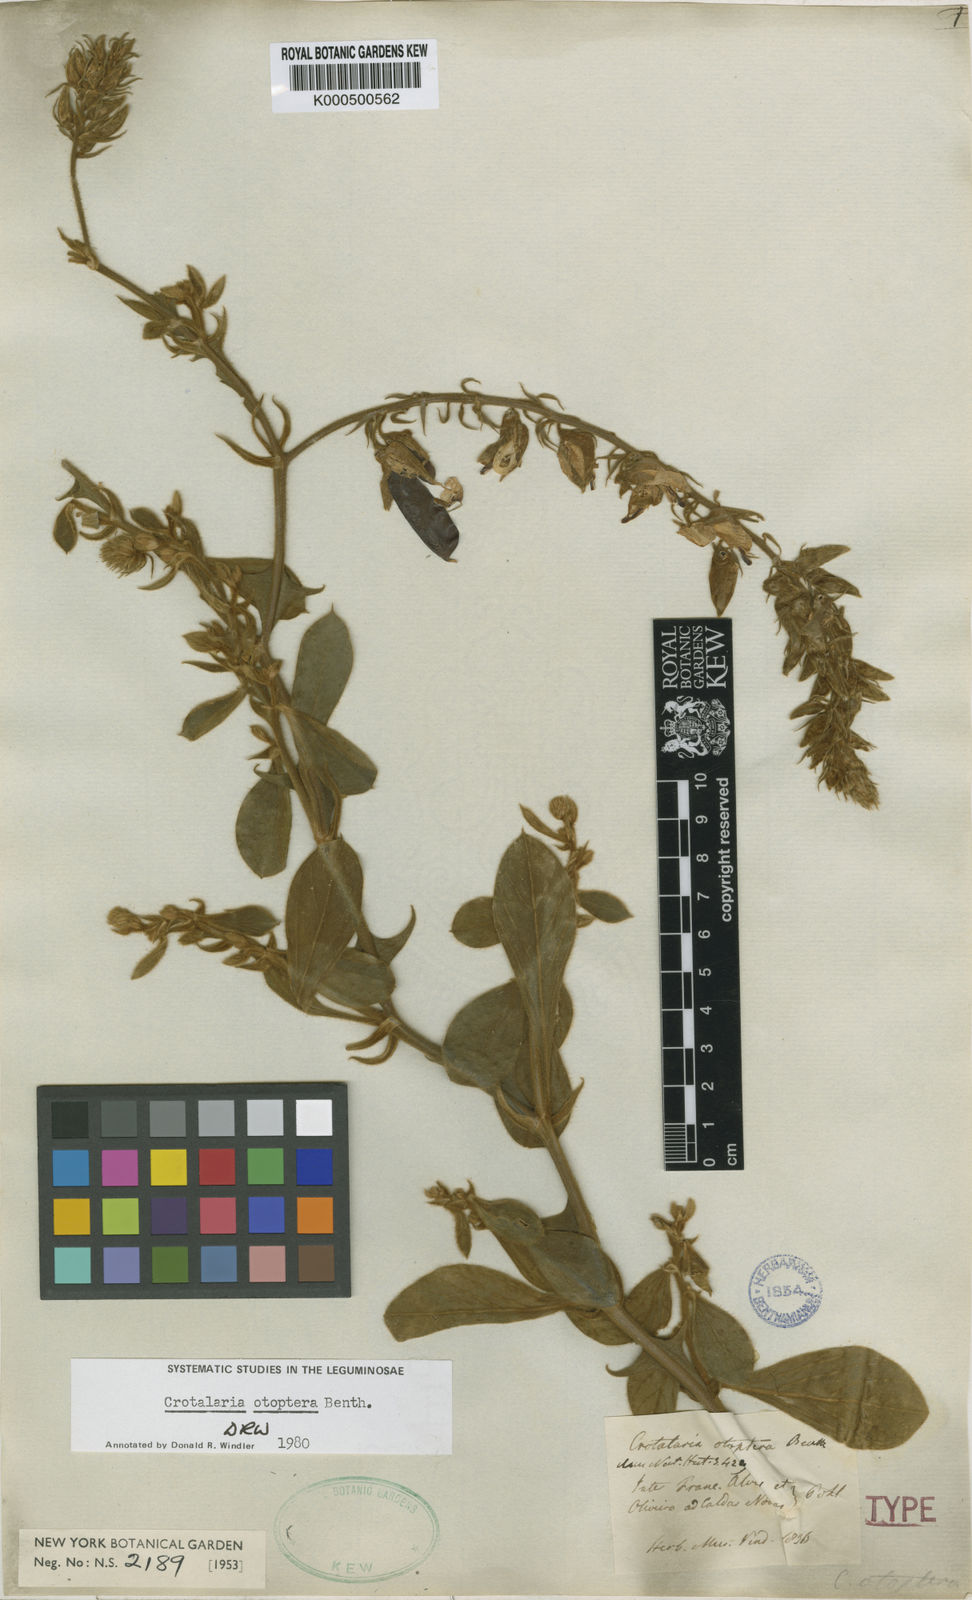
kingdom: Plantae
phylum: Tracheophyta
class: Magnoliopsida
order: Fabales
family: Fabaceae
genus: Crotalaria
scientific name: Crotalaria otoptera
